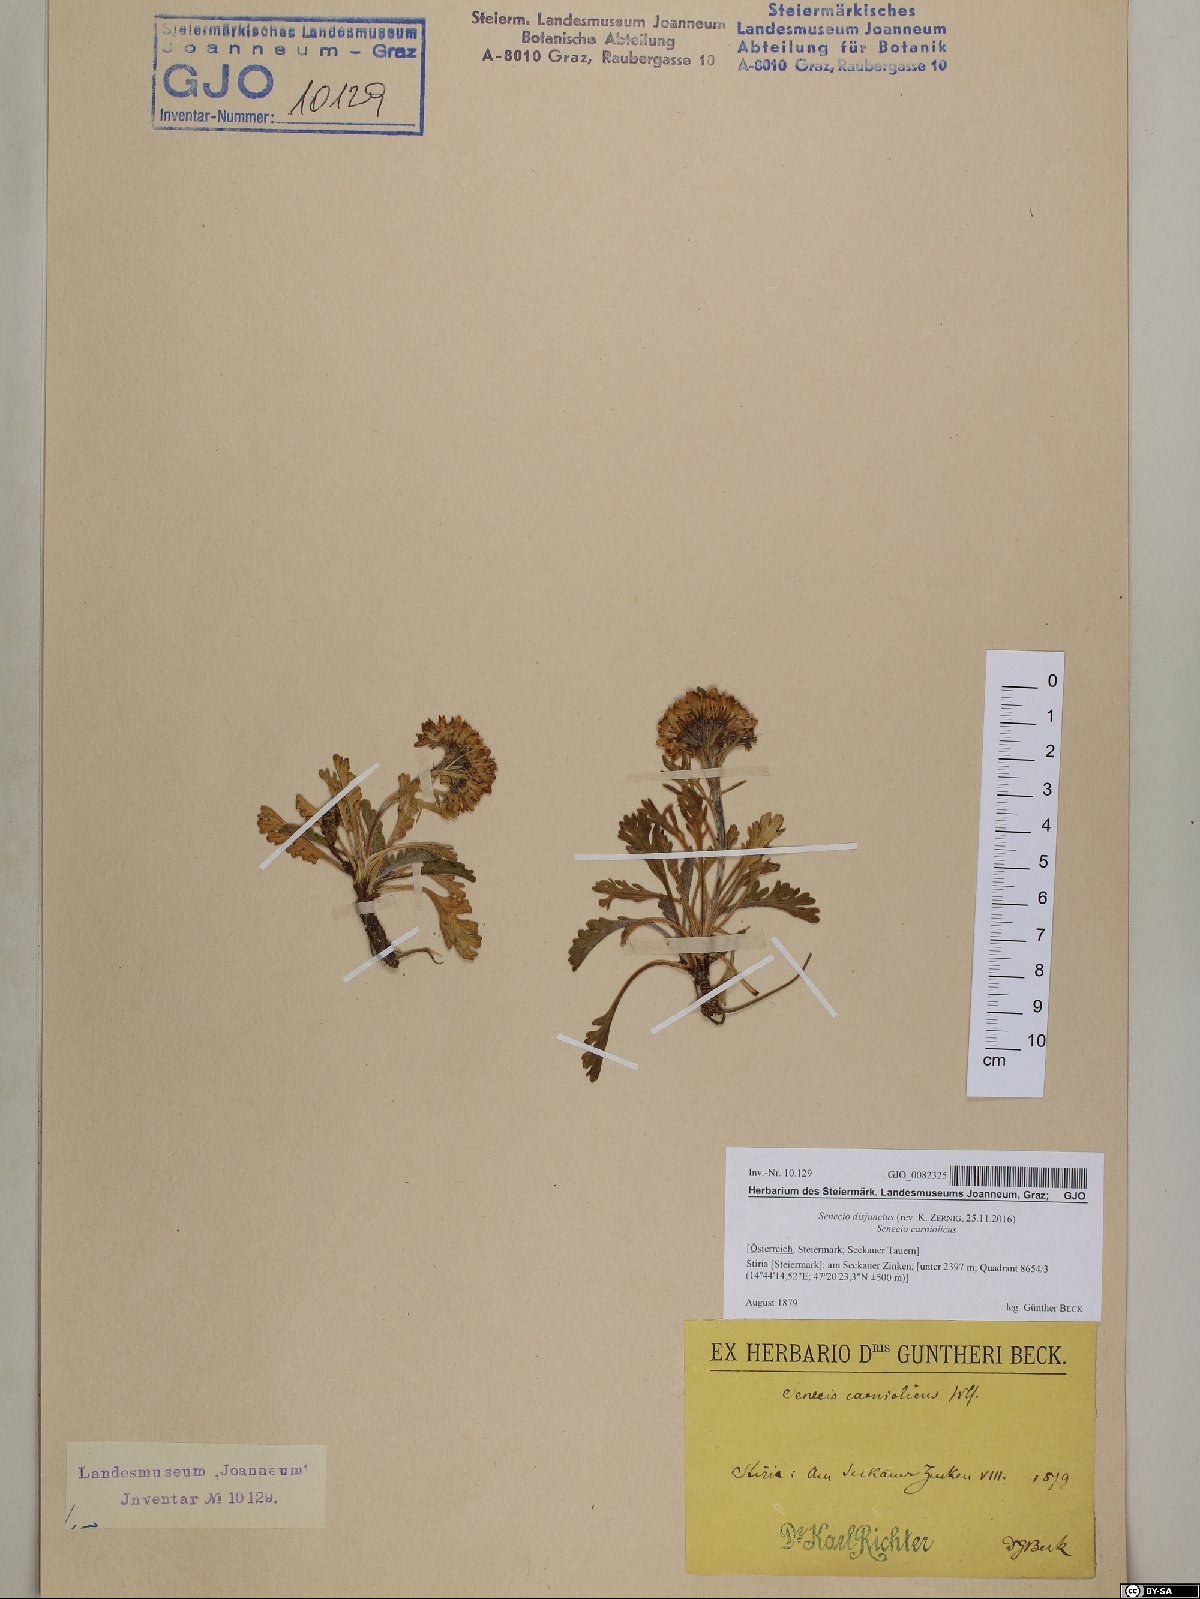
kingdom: Plantae
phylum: Tracheophyta
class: Magnoliopsida
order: Asterales
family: Asteraceae
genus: Jacobaea
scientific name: Jacobaea disjuncta
